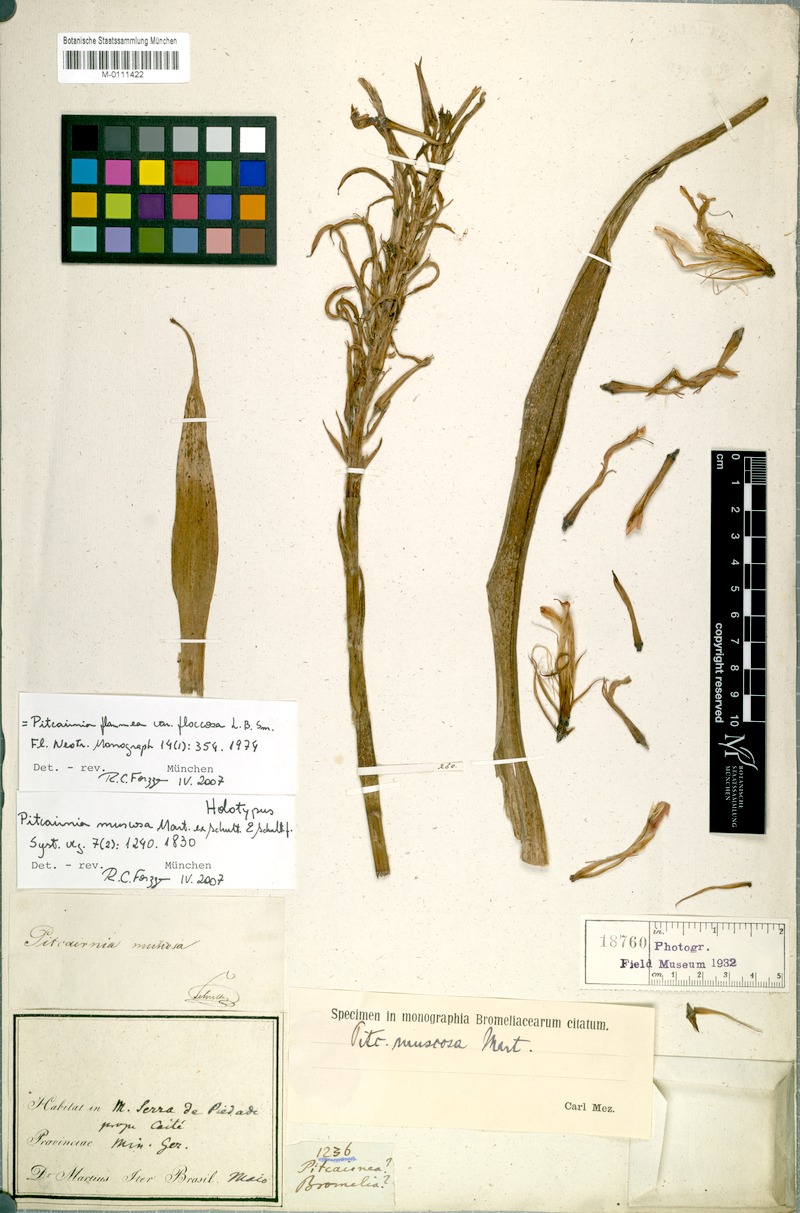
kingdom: Plantae
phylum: Tracheophyta
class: Liliopsida
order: Poales
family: Bromeliaceae
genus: Pitcairnia
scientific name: Pitcairnia flammea
